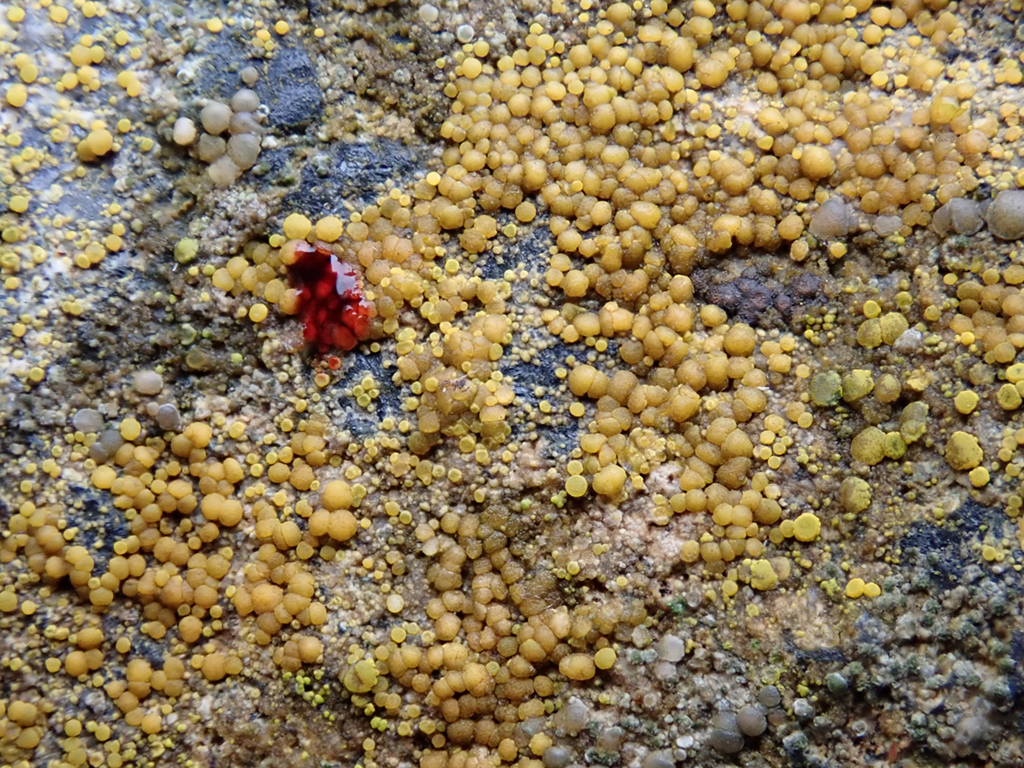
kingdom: Fungi
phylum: Ascomycota
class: Lecanoromycetes
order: Teloschistales
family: Teloschistaceae
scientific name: Teloschistaceae
